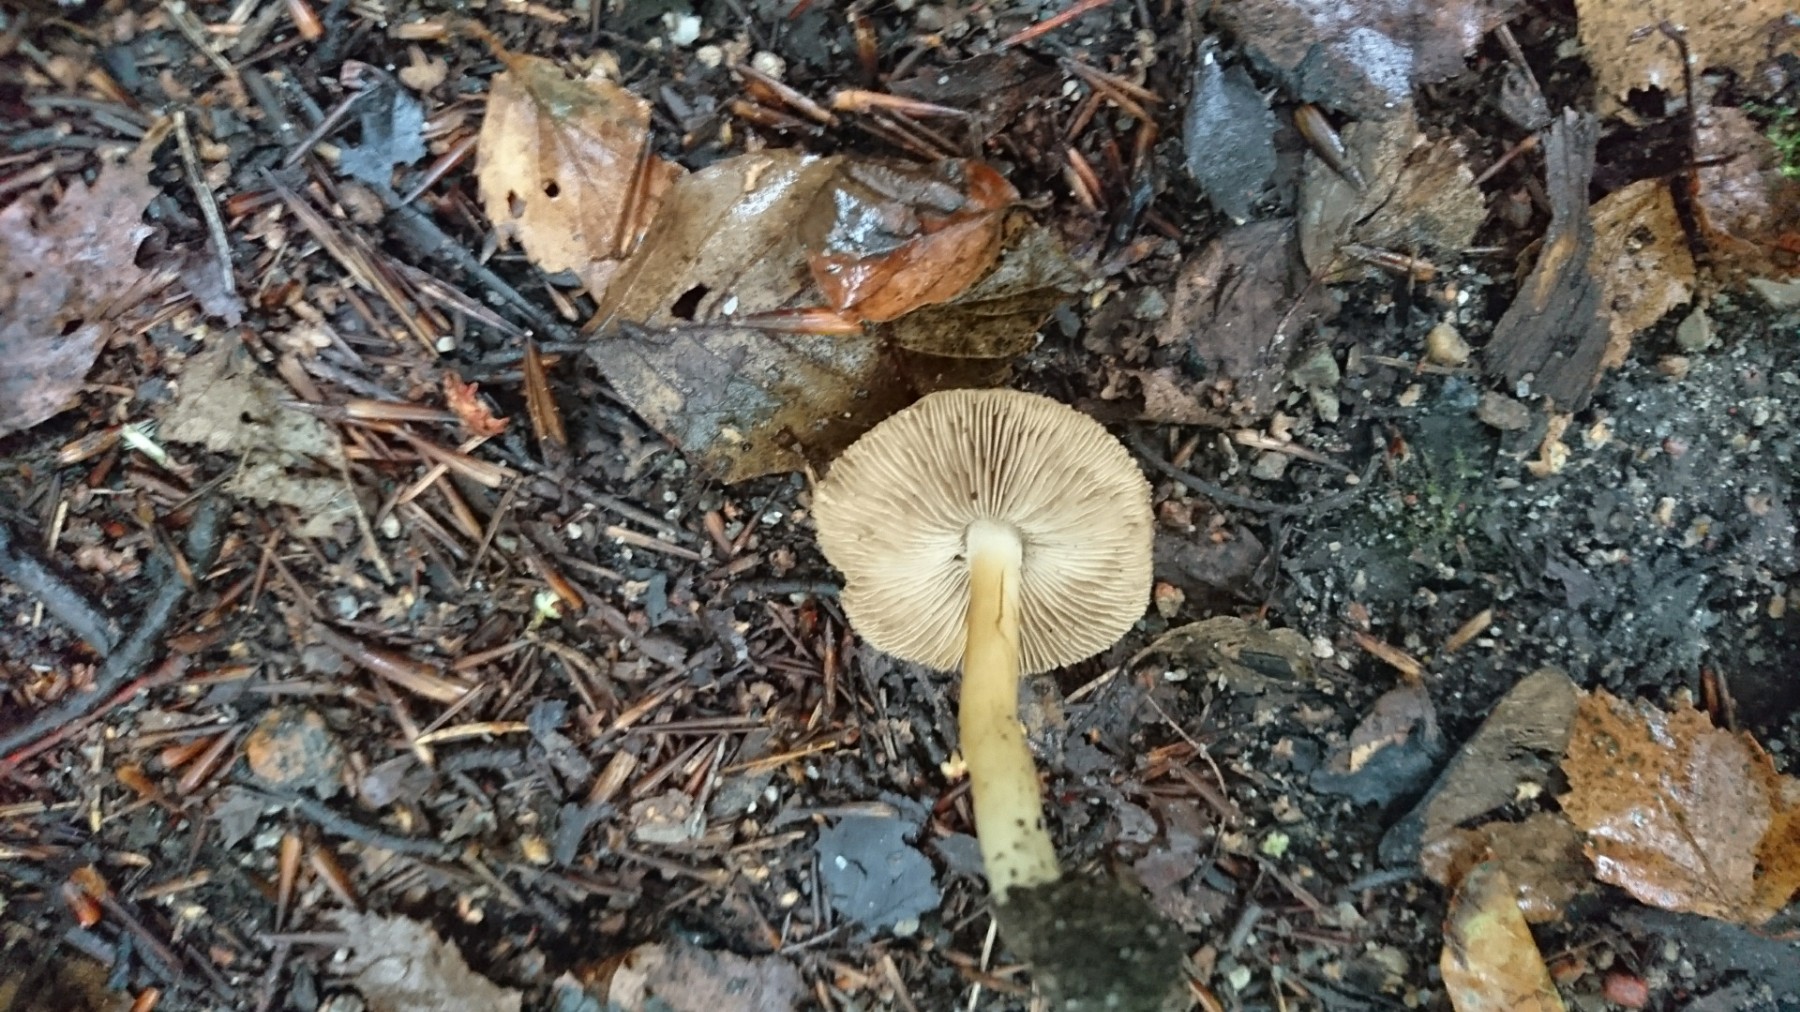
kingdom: Fungi
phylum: Basidiomycota
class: Agaricomycetes
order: Agaricales
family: Inocybaceae
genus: Inosperma
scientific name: Inosperma
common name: strågul trævlhat
